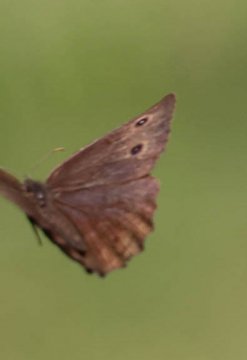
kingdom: Animalia
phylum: Arthropoda
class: Insecta
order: Lepidoptera
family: Nymphalidae
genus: Cercyonis
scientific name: Cercyonis pegala
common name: Common Wood-Nymph
